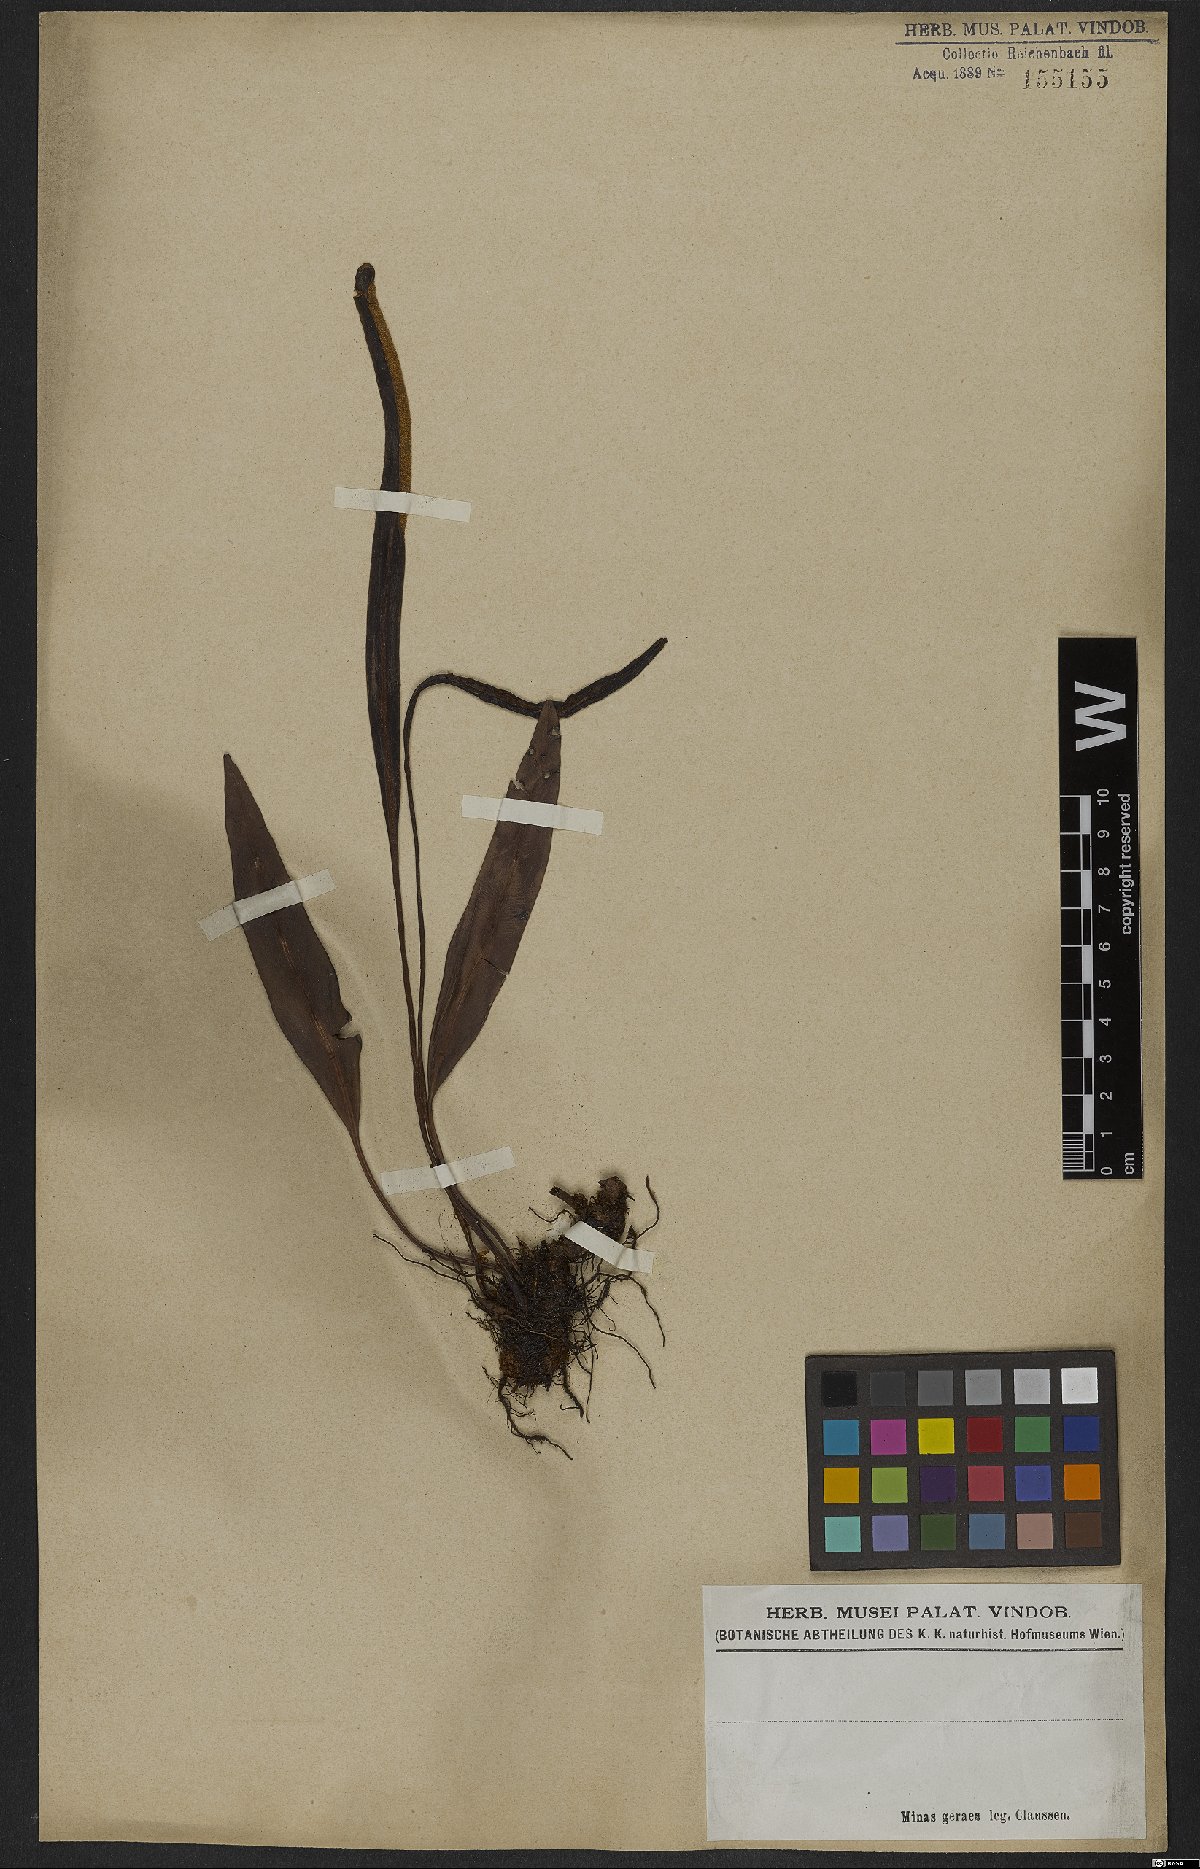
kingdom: Plantae
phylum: Tracheophyta
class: Polypodiopsida
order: Polypodiales
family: Dryopteridaceae
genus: Elaphoglossum
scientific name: Elaphoglossum
